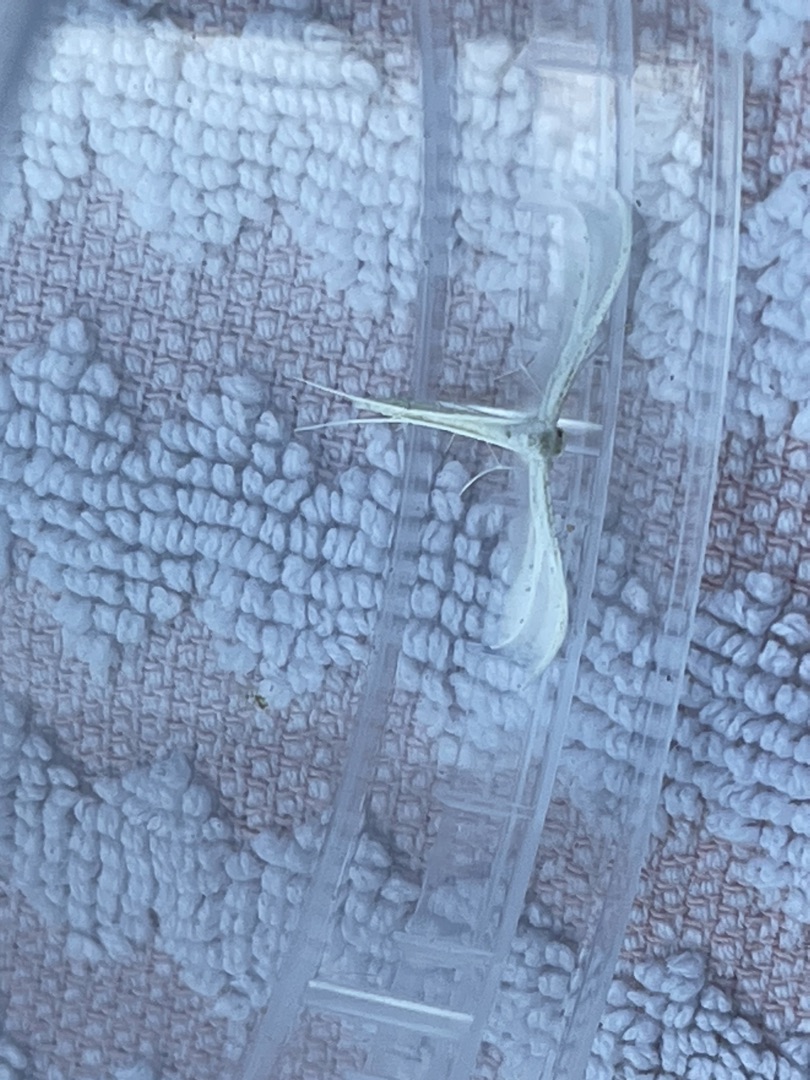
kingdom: Animalia
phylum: Arthropoda
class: Insecta
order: Lepidoptera
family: Pterophoridae
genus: Pterophorus
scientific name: Pterophorus pentadactyla
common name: Hvidt fjermøl
